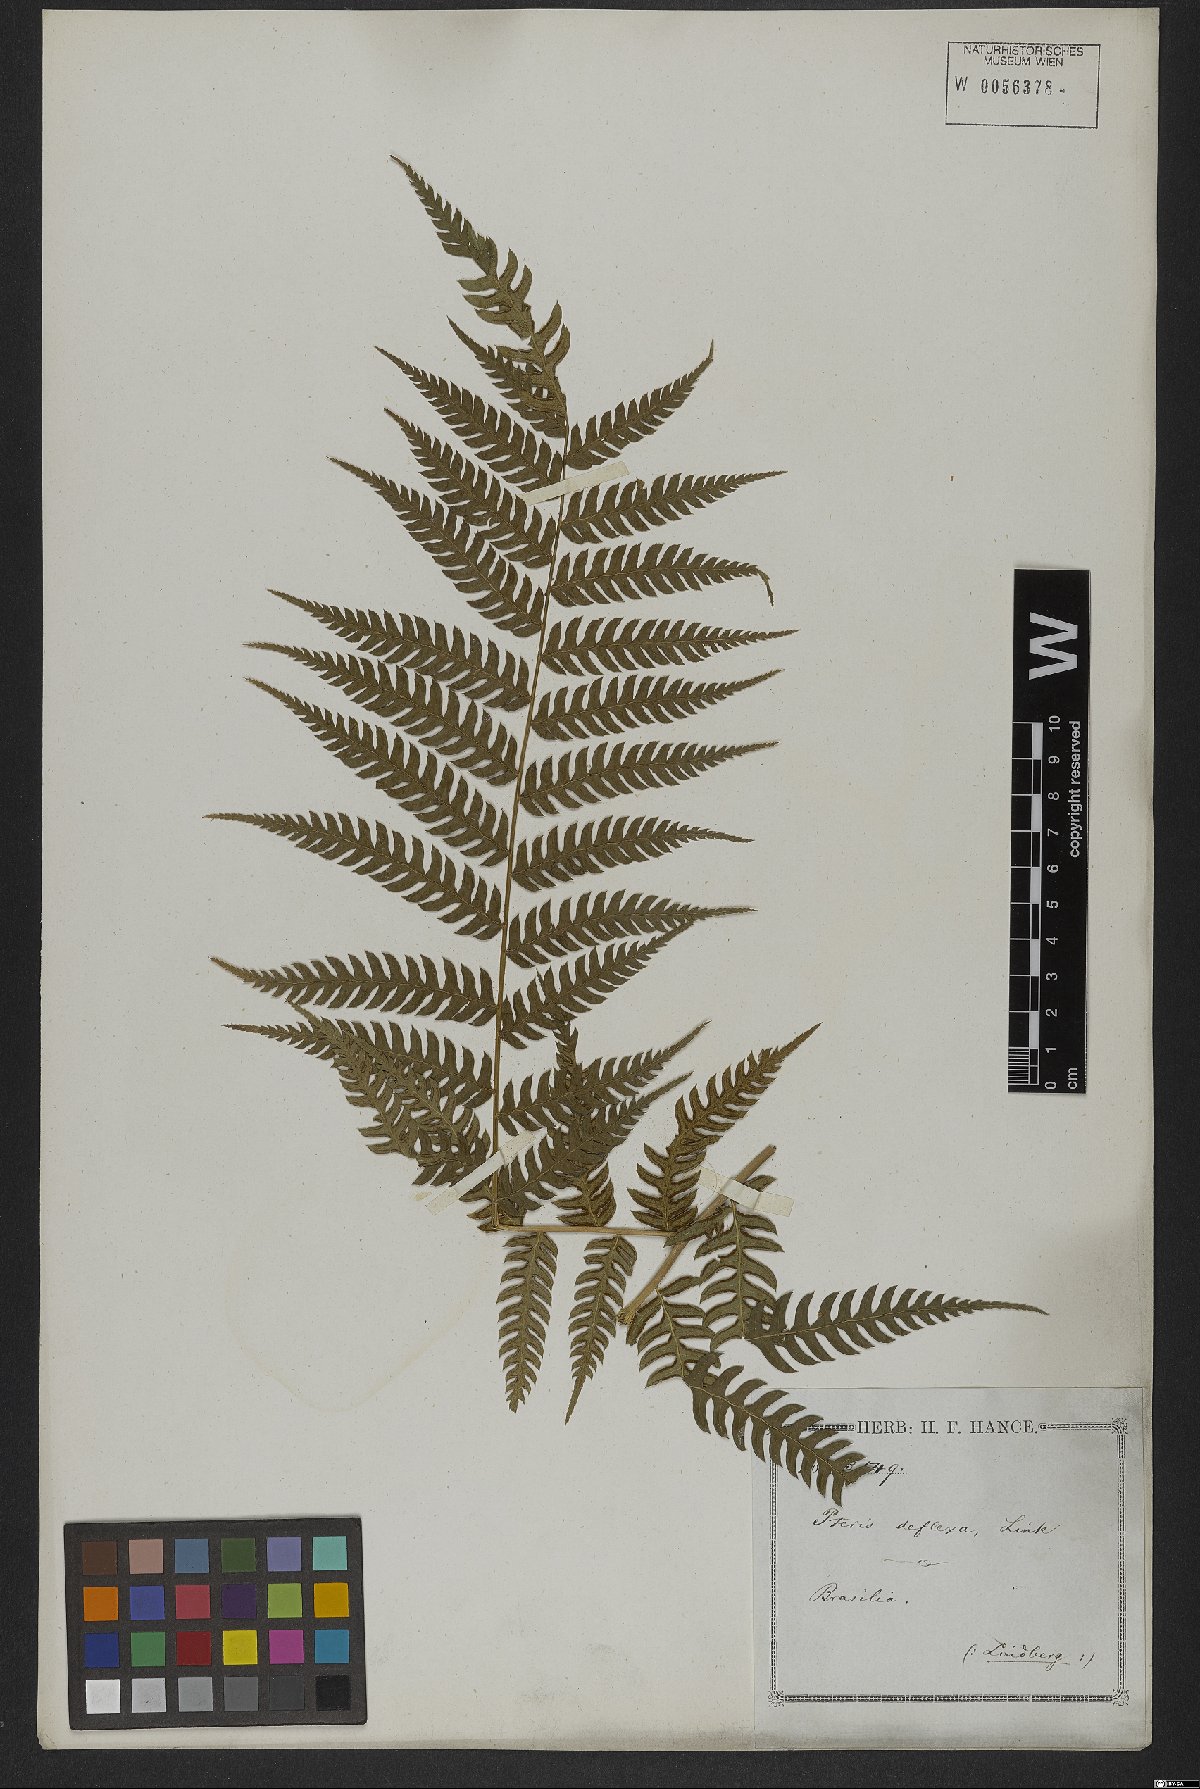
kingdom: Plantae
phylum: Tracheophyta
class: Polypodiopsida
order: Polypodiales
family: Pteridaceae
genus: Pteris
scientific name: Pteris deflexa
